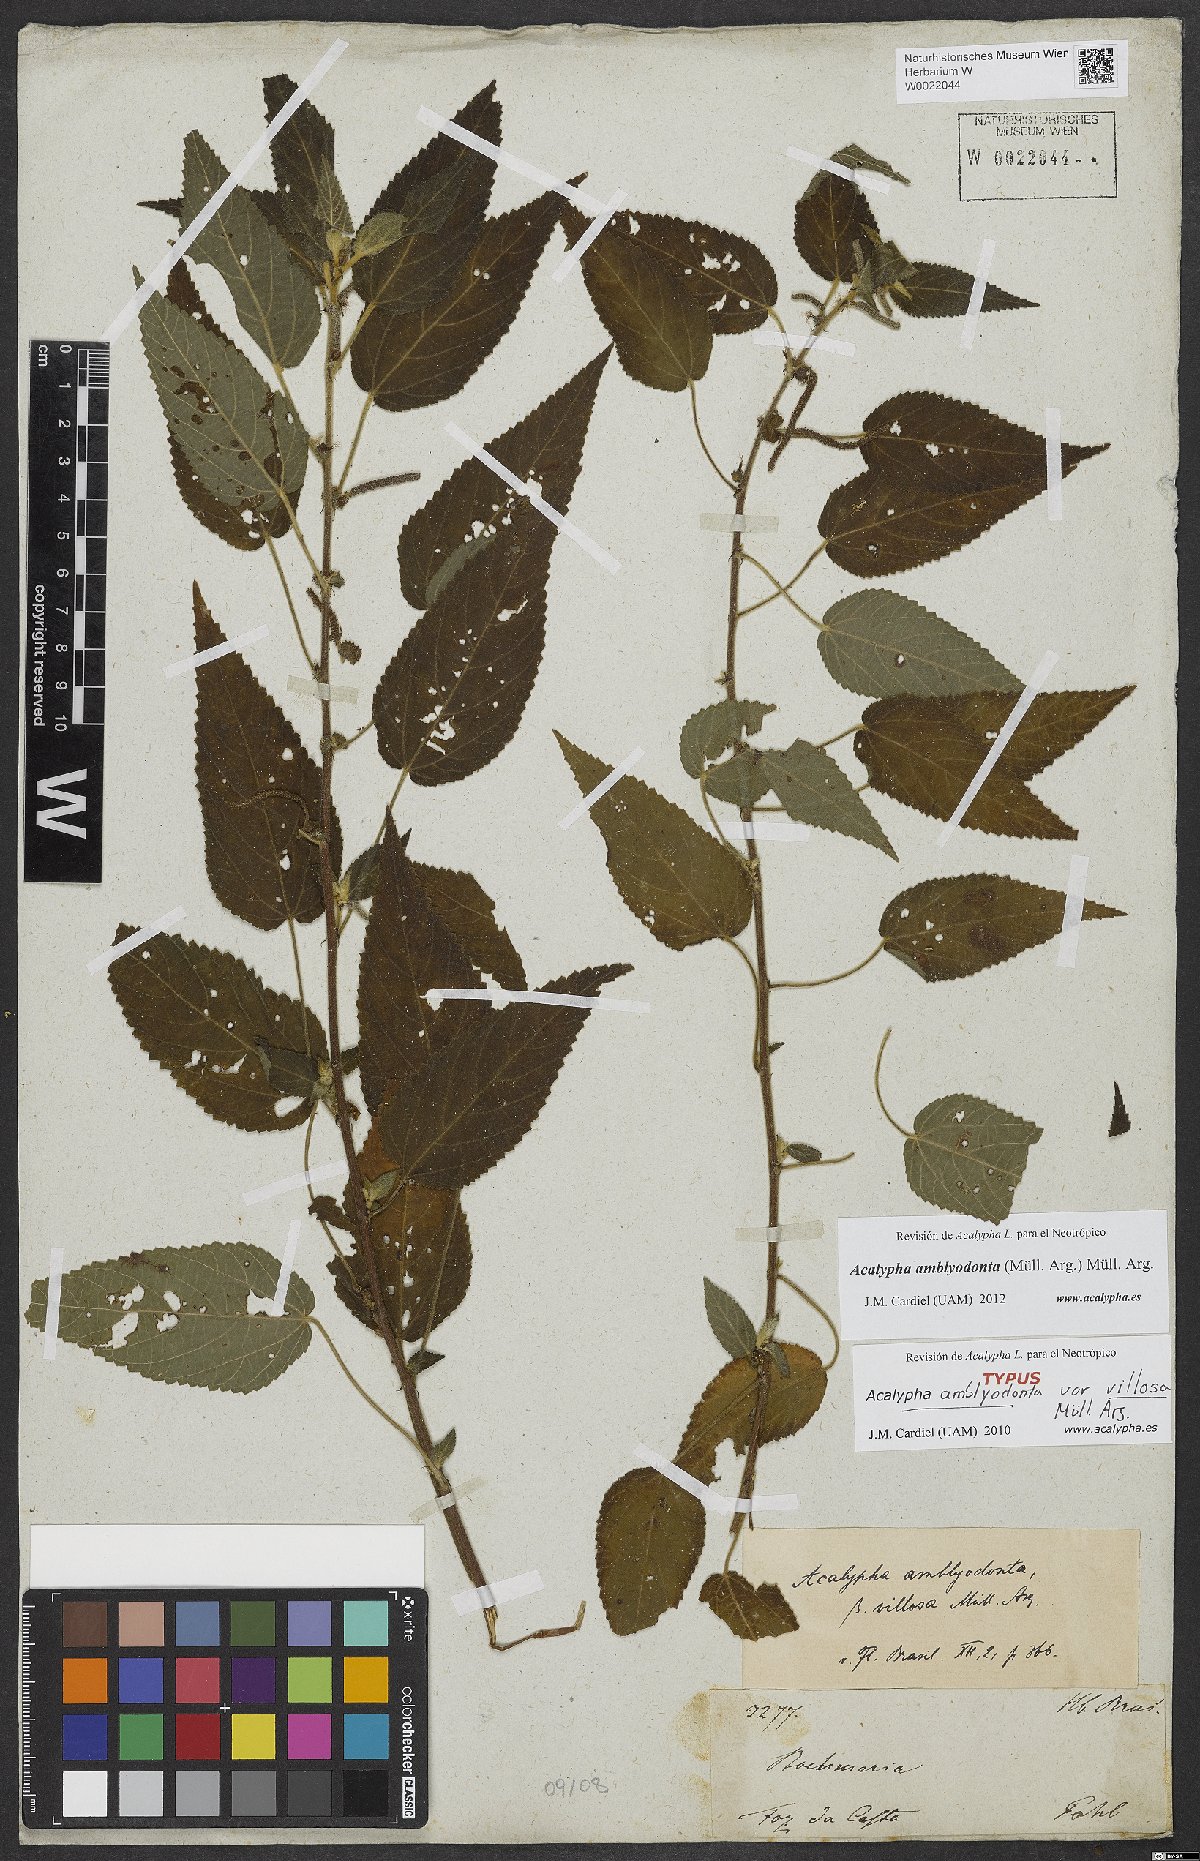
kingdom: Plantae
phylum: Tracheophyta
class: Magnoliopsida
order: Malpighiales
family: Euphorbiaceae
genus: Acalypha
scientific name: Acalypha amblyodonta
